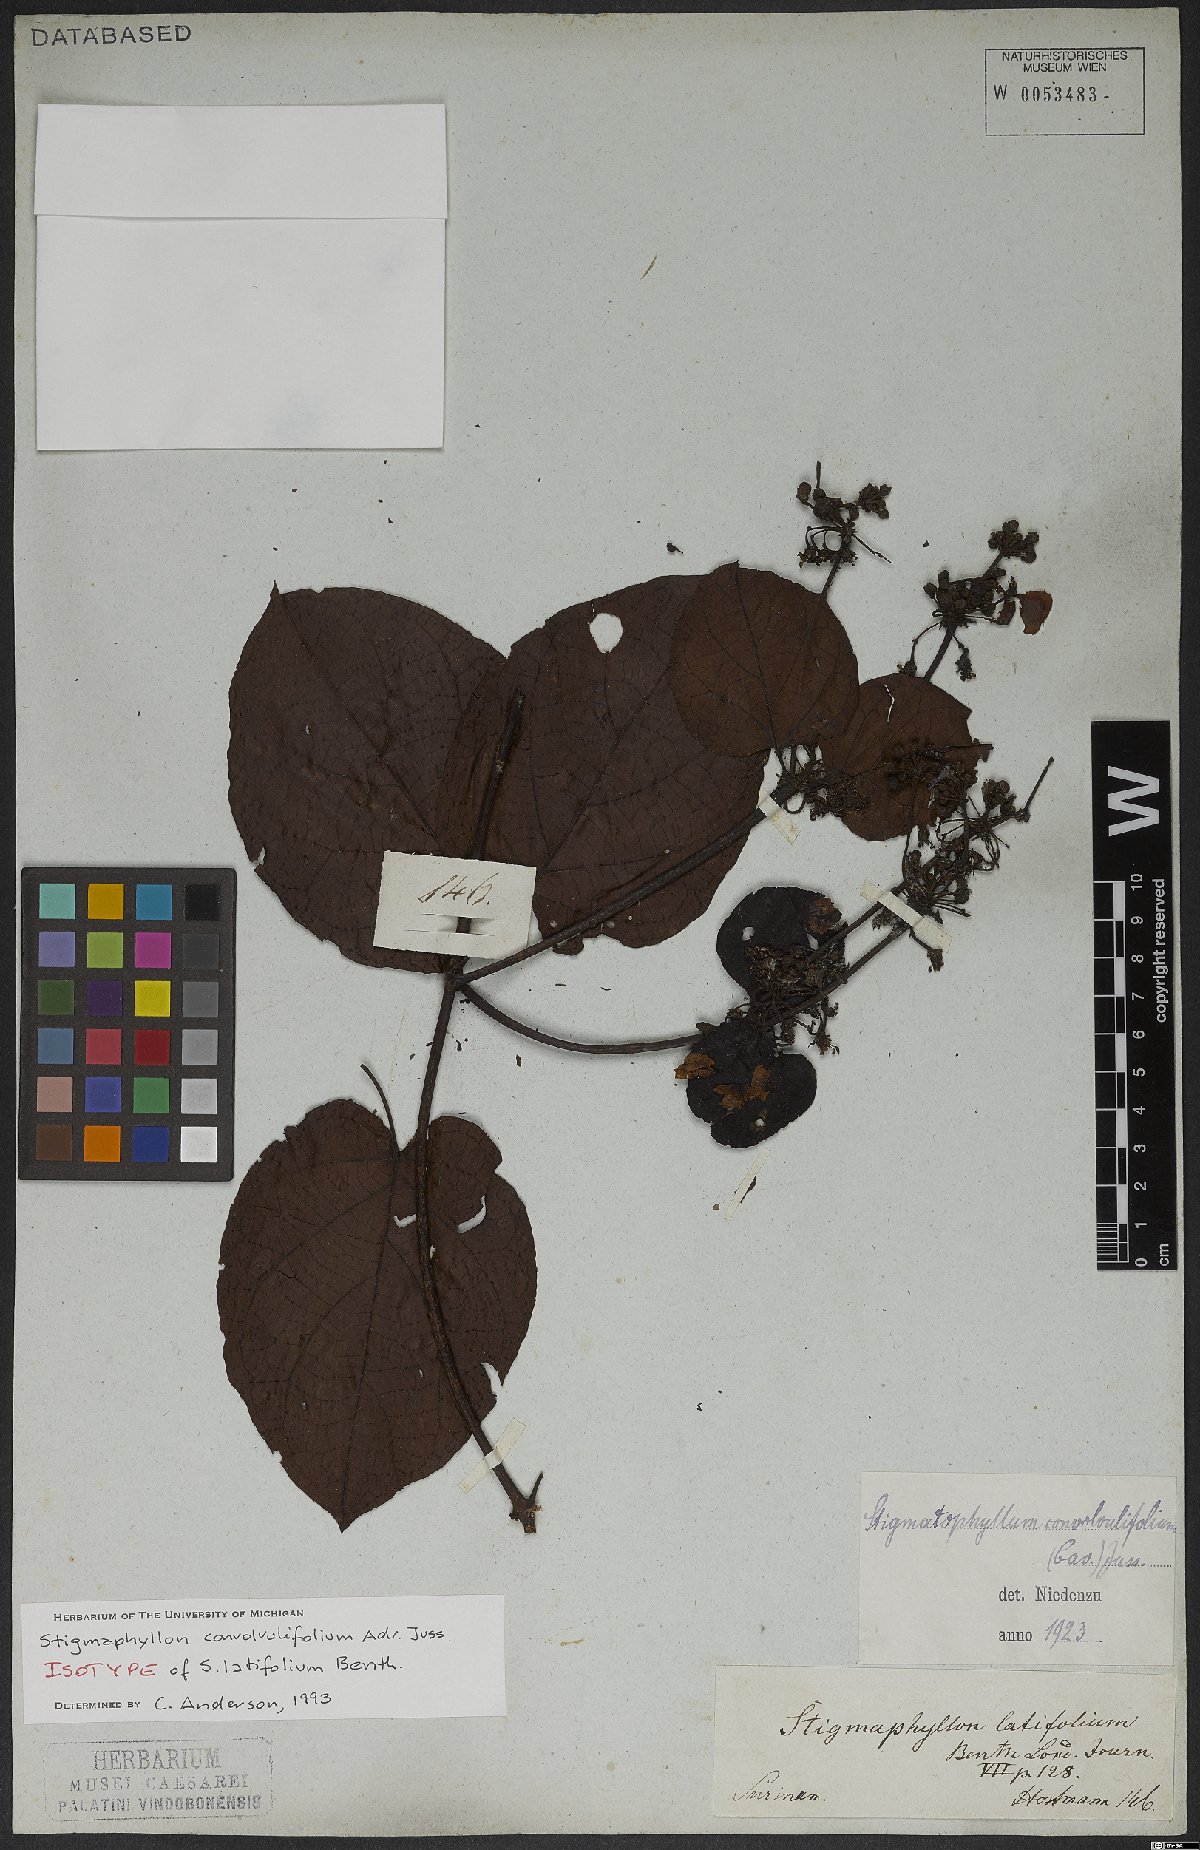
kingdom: Plantae
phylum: Tracheophyta
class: Magnoliopsida
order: Malpighiales
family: Malpighiaceae
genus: Stigmaphyllon
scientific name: Stigmaphyllon convolvulifolium
